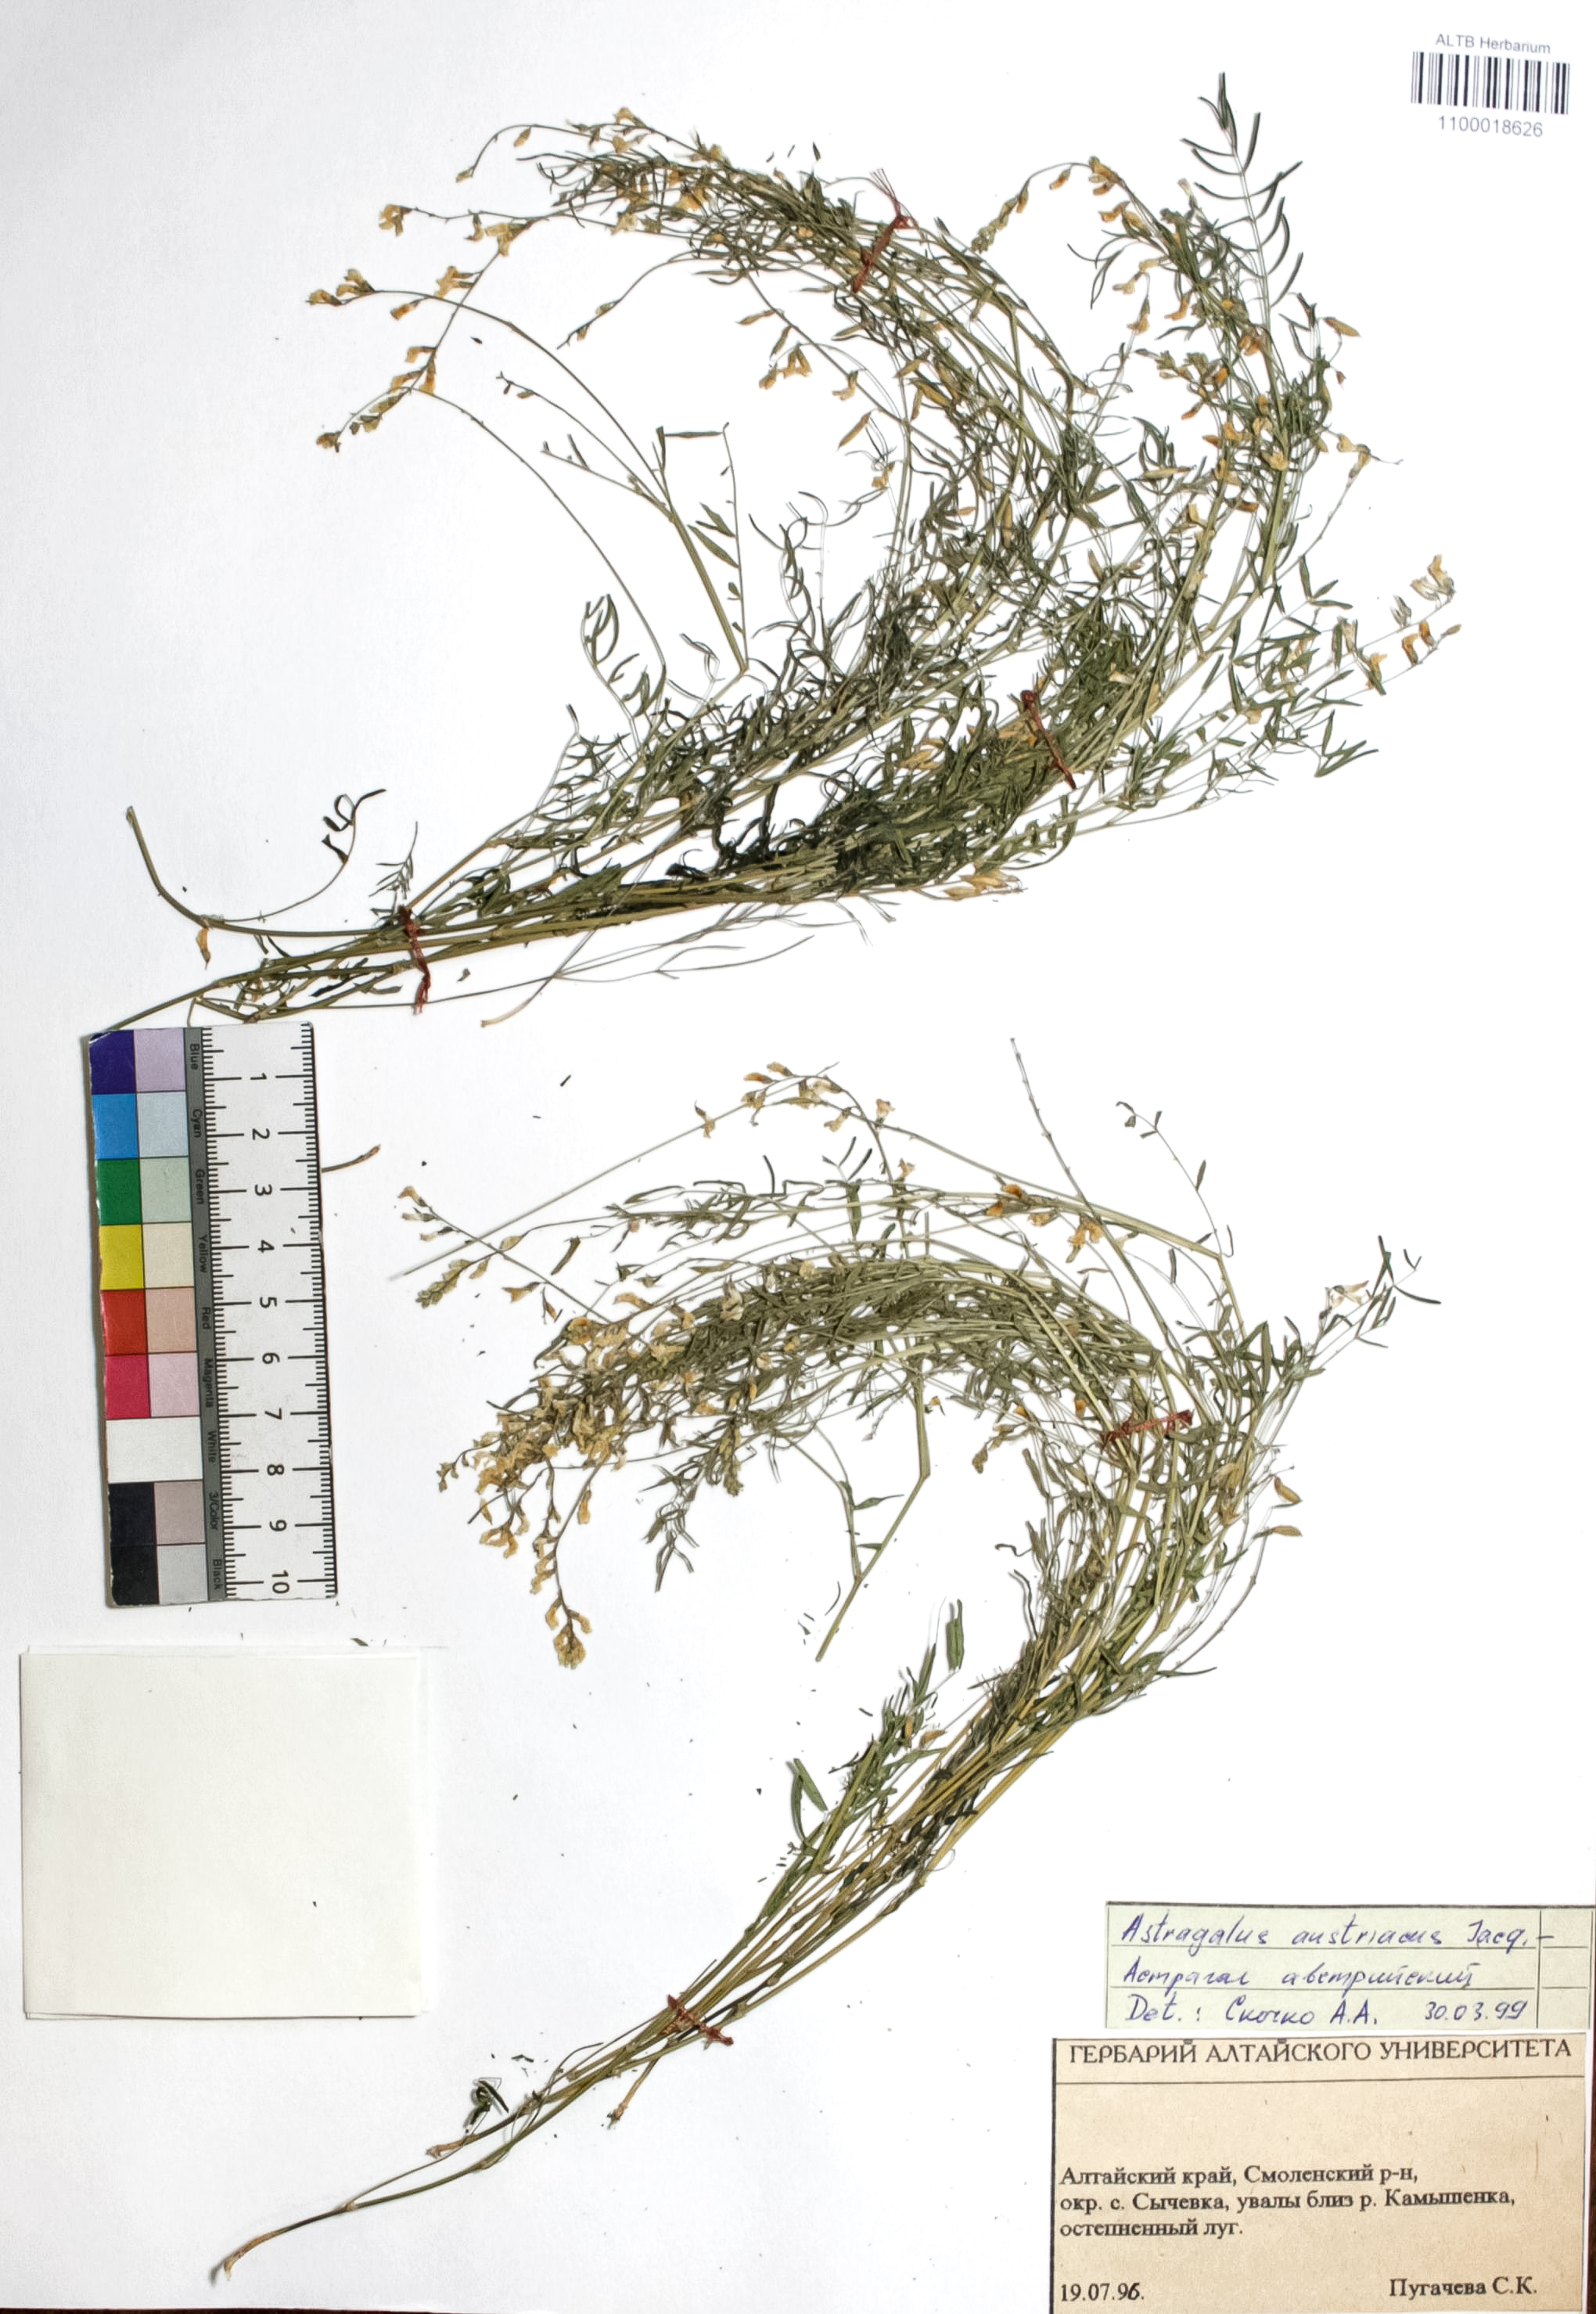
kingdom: Plantae
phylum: Tracheophyta
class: Magnoliopsida
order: Fabales
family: Fabaceae
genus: Astragalus
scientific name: Astragalus austriacus
